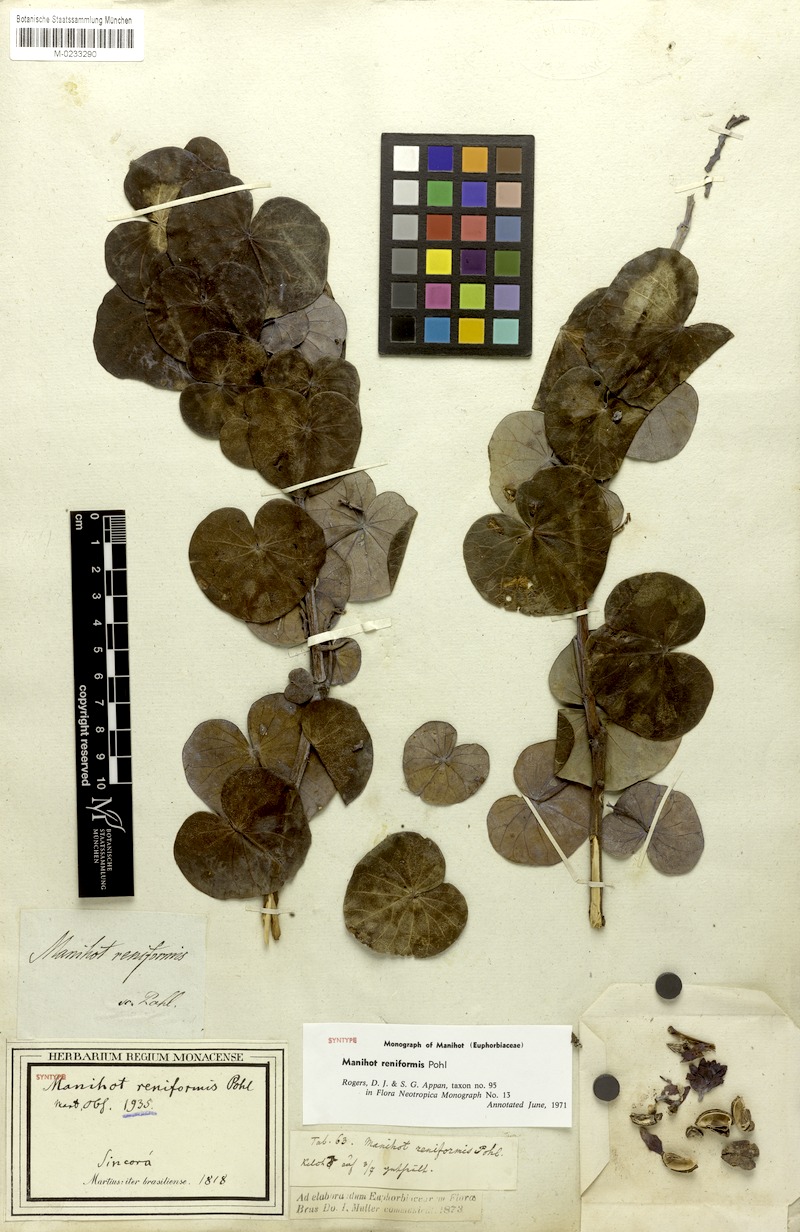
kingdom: Plantae
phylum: Tracheophyta
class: Magnoliopsida
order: Malpighiales
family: Euphorbiaceae
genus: Manihot
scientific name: Manihot reniformis
